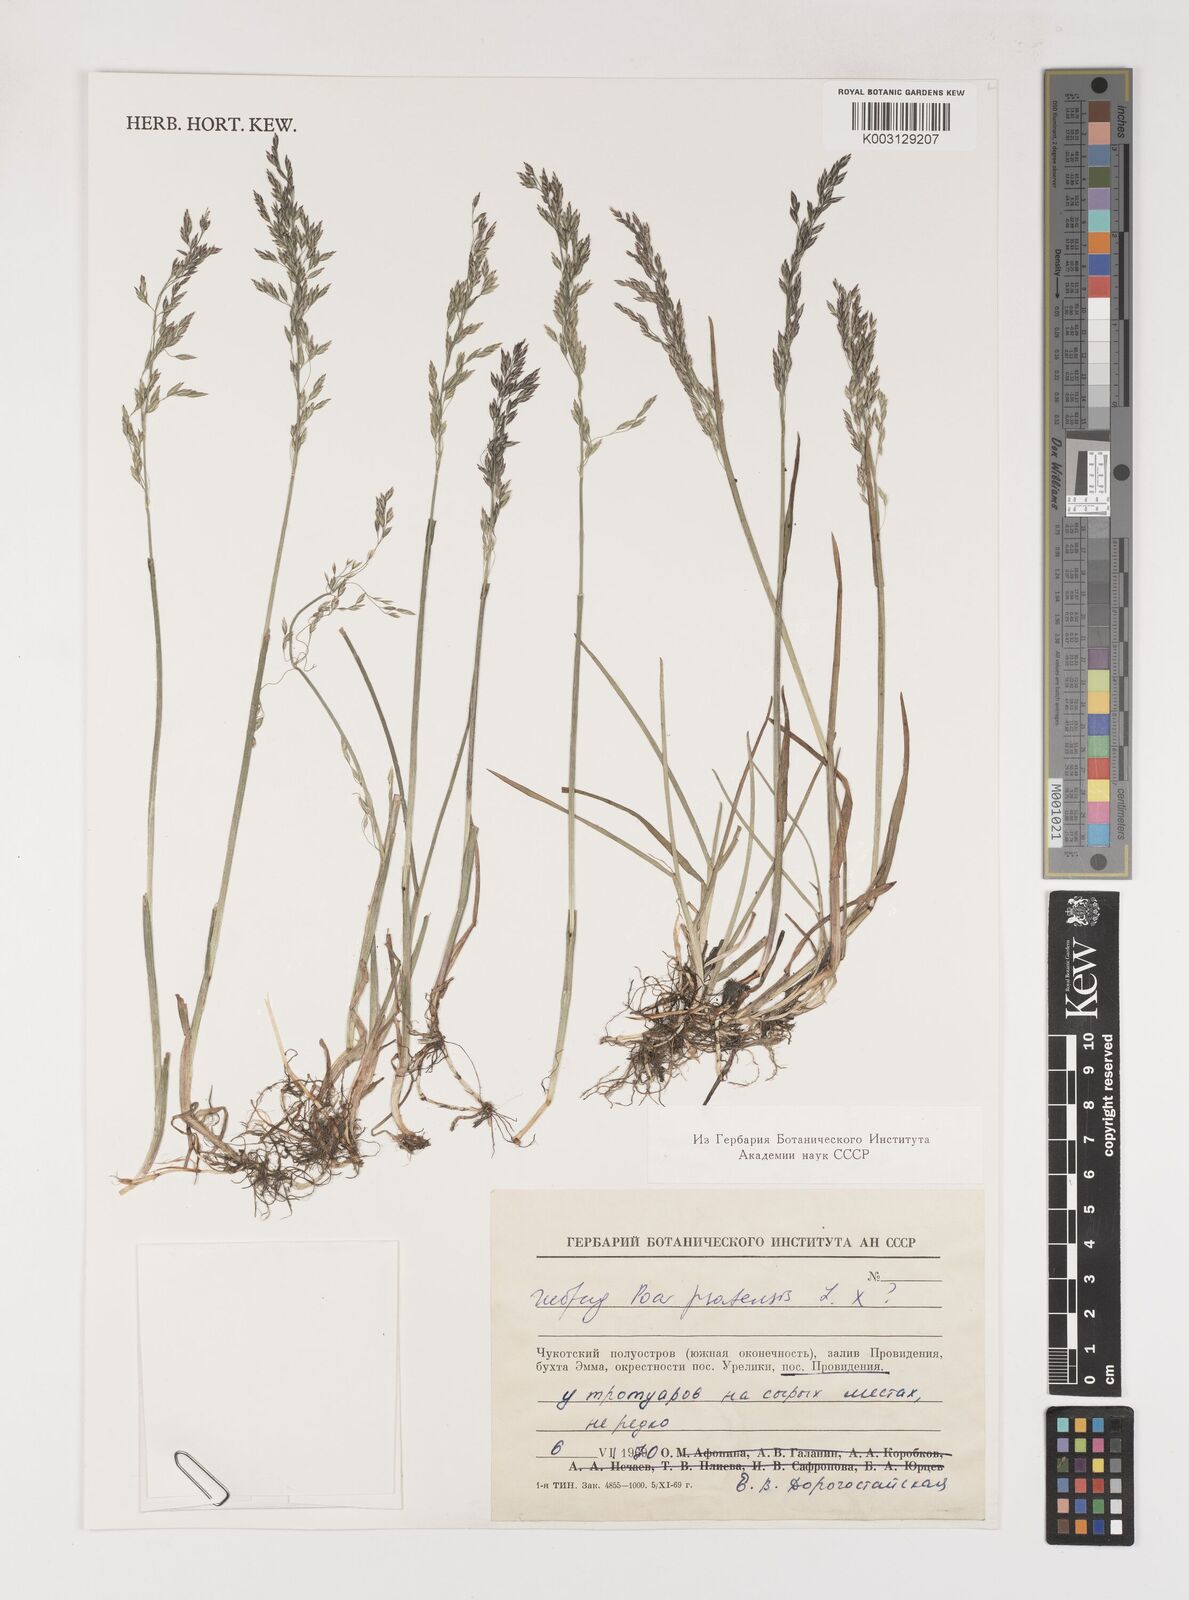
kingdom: Plantae
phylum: Tracheophyta
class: Liliopsida
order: Poales
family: Poaceae
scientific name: Poaceae
